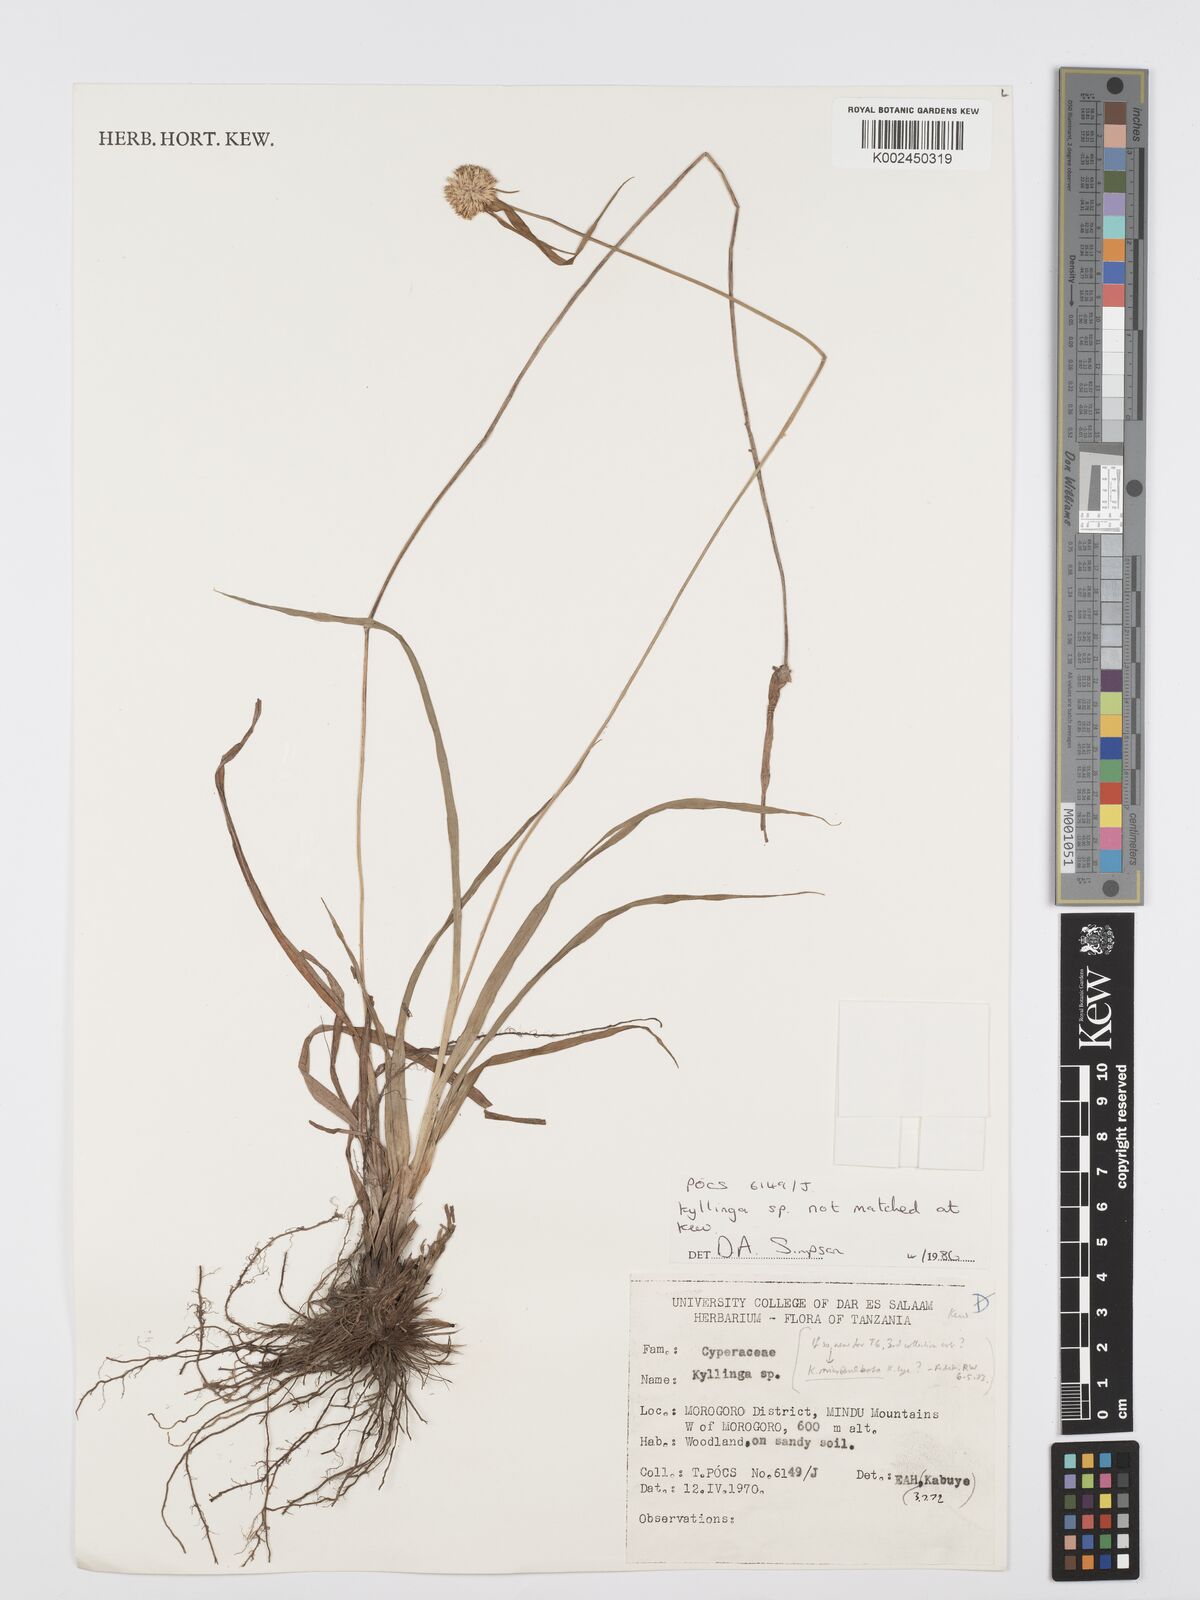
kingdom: Plantae
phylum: Tracheophyta
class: Liliopsida
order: Poales
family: Cyperaceae
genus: Cyperus
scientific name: Cyperus
